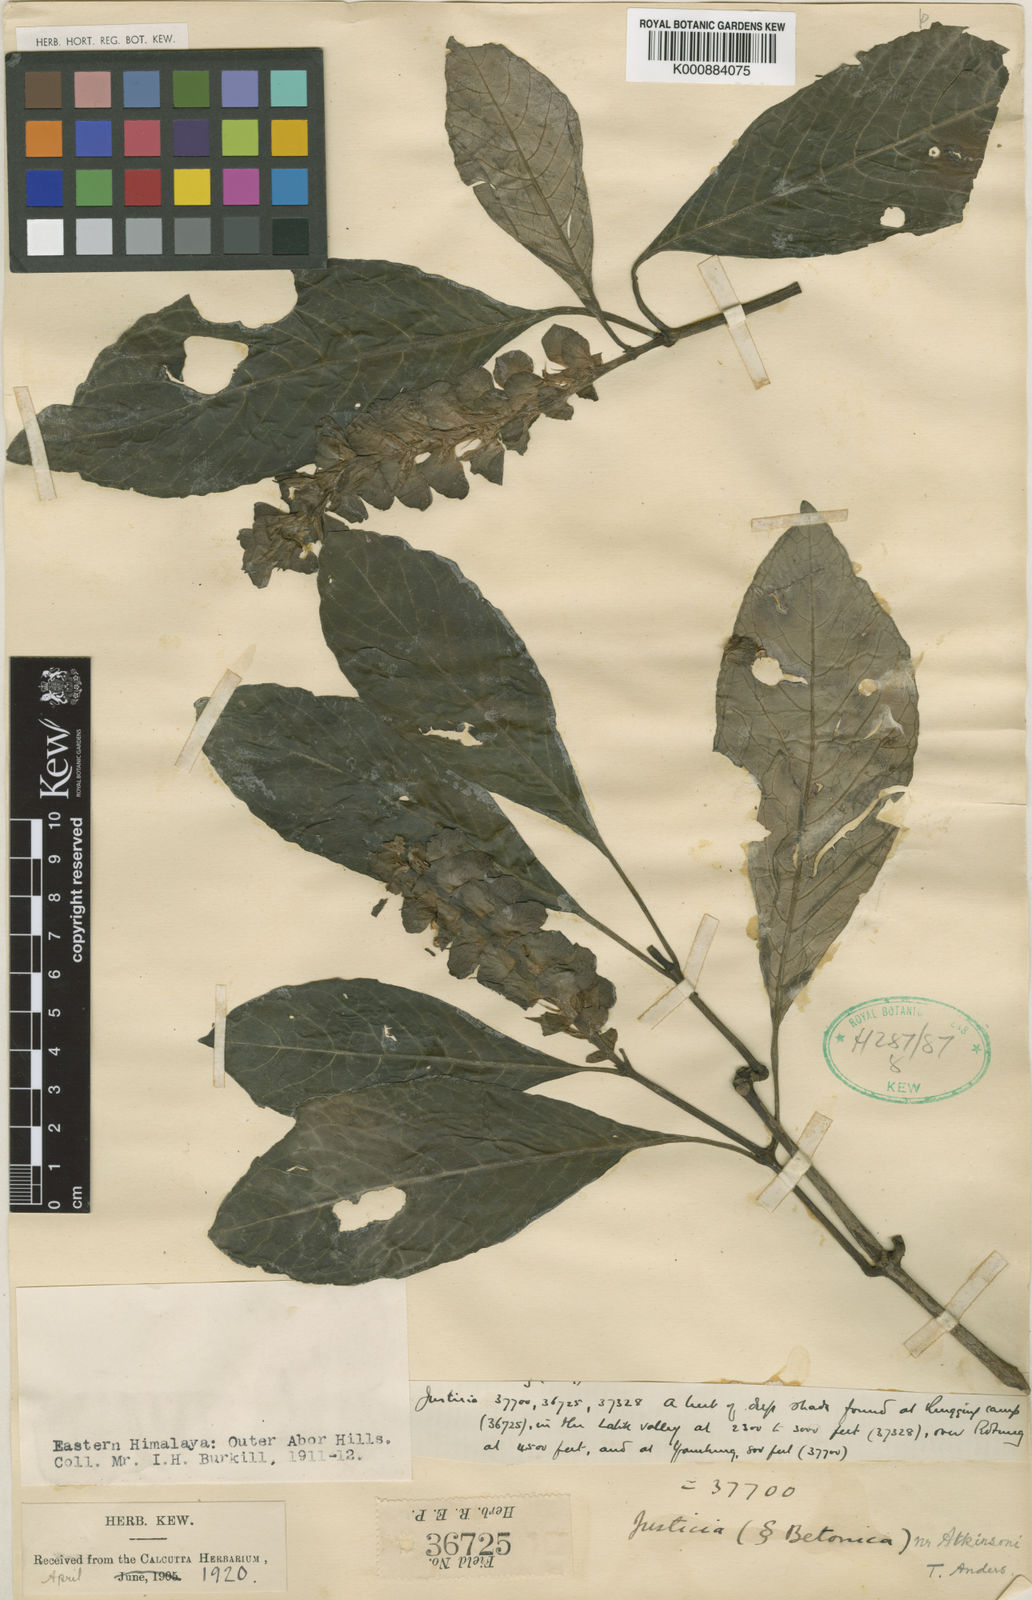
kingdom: Plantae
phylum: Tracheophyta
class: Magnoliopsida
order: Lamiales
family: Acanthaceae
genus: Rungia
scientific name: Rungia burmanica
